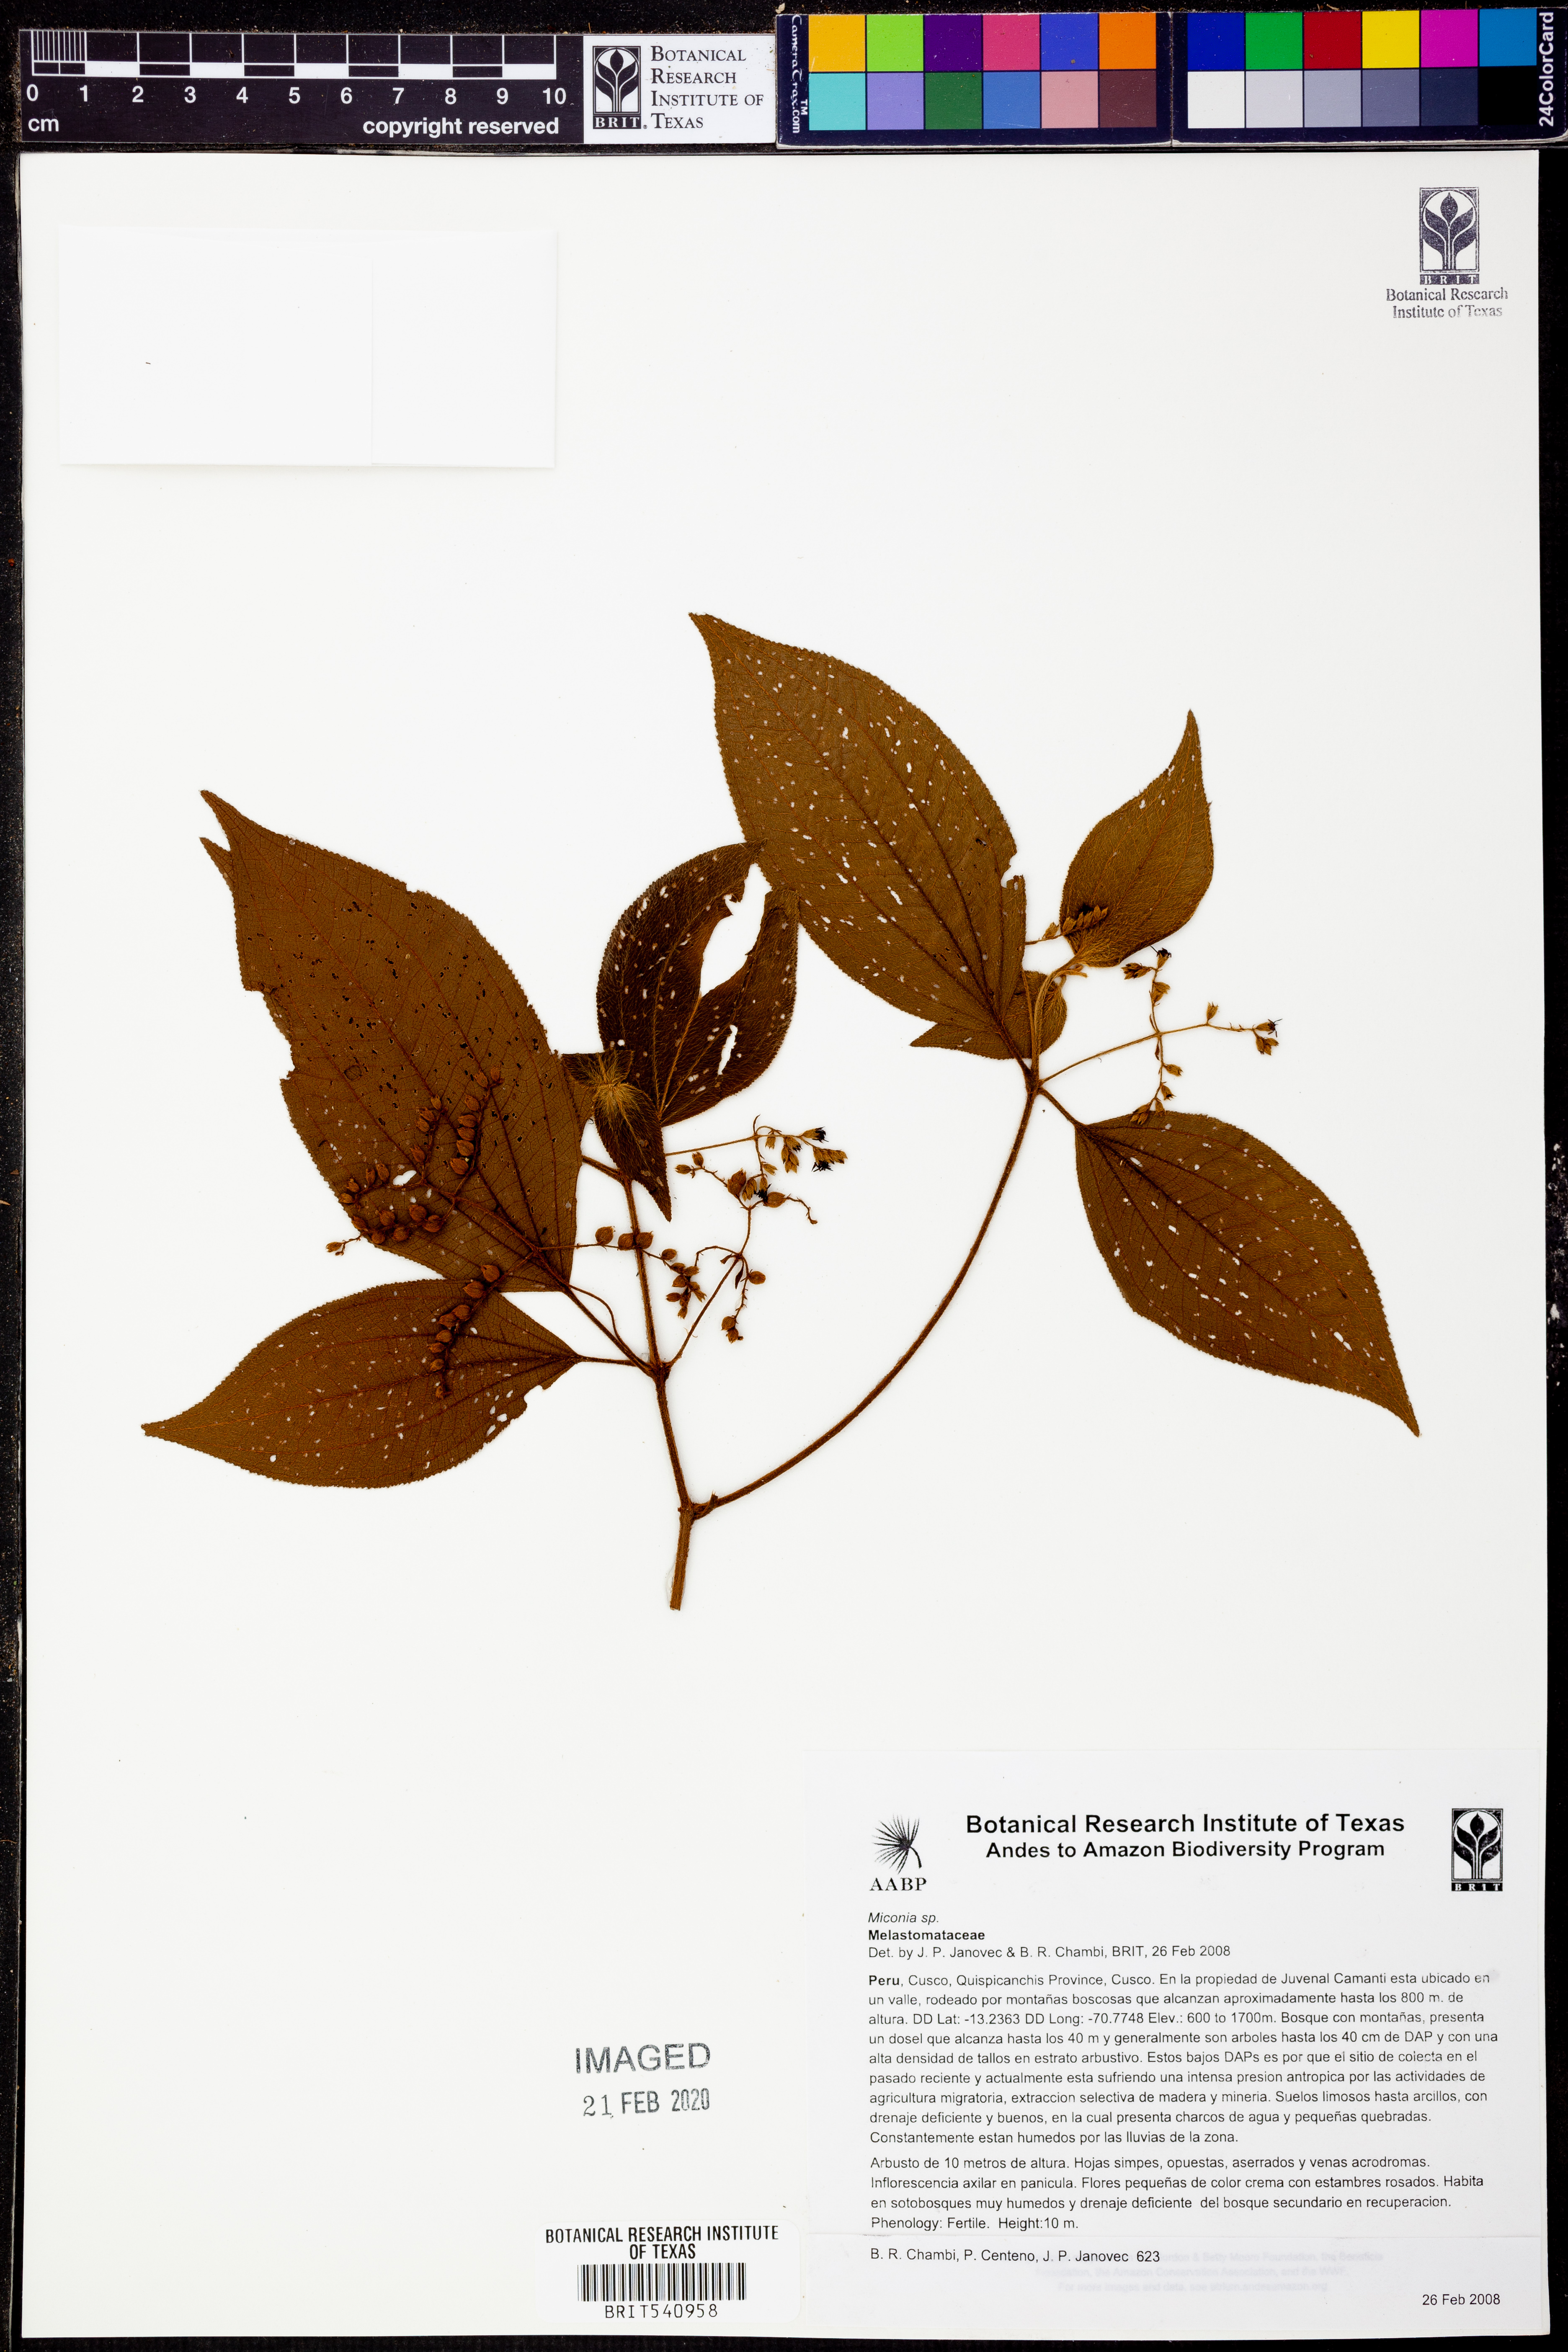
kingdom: Plantae
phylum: Tracheophyta
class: Magnoliopsida
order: Myrtales
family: Melastomataceae
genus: Miconia
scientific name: Miconia
